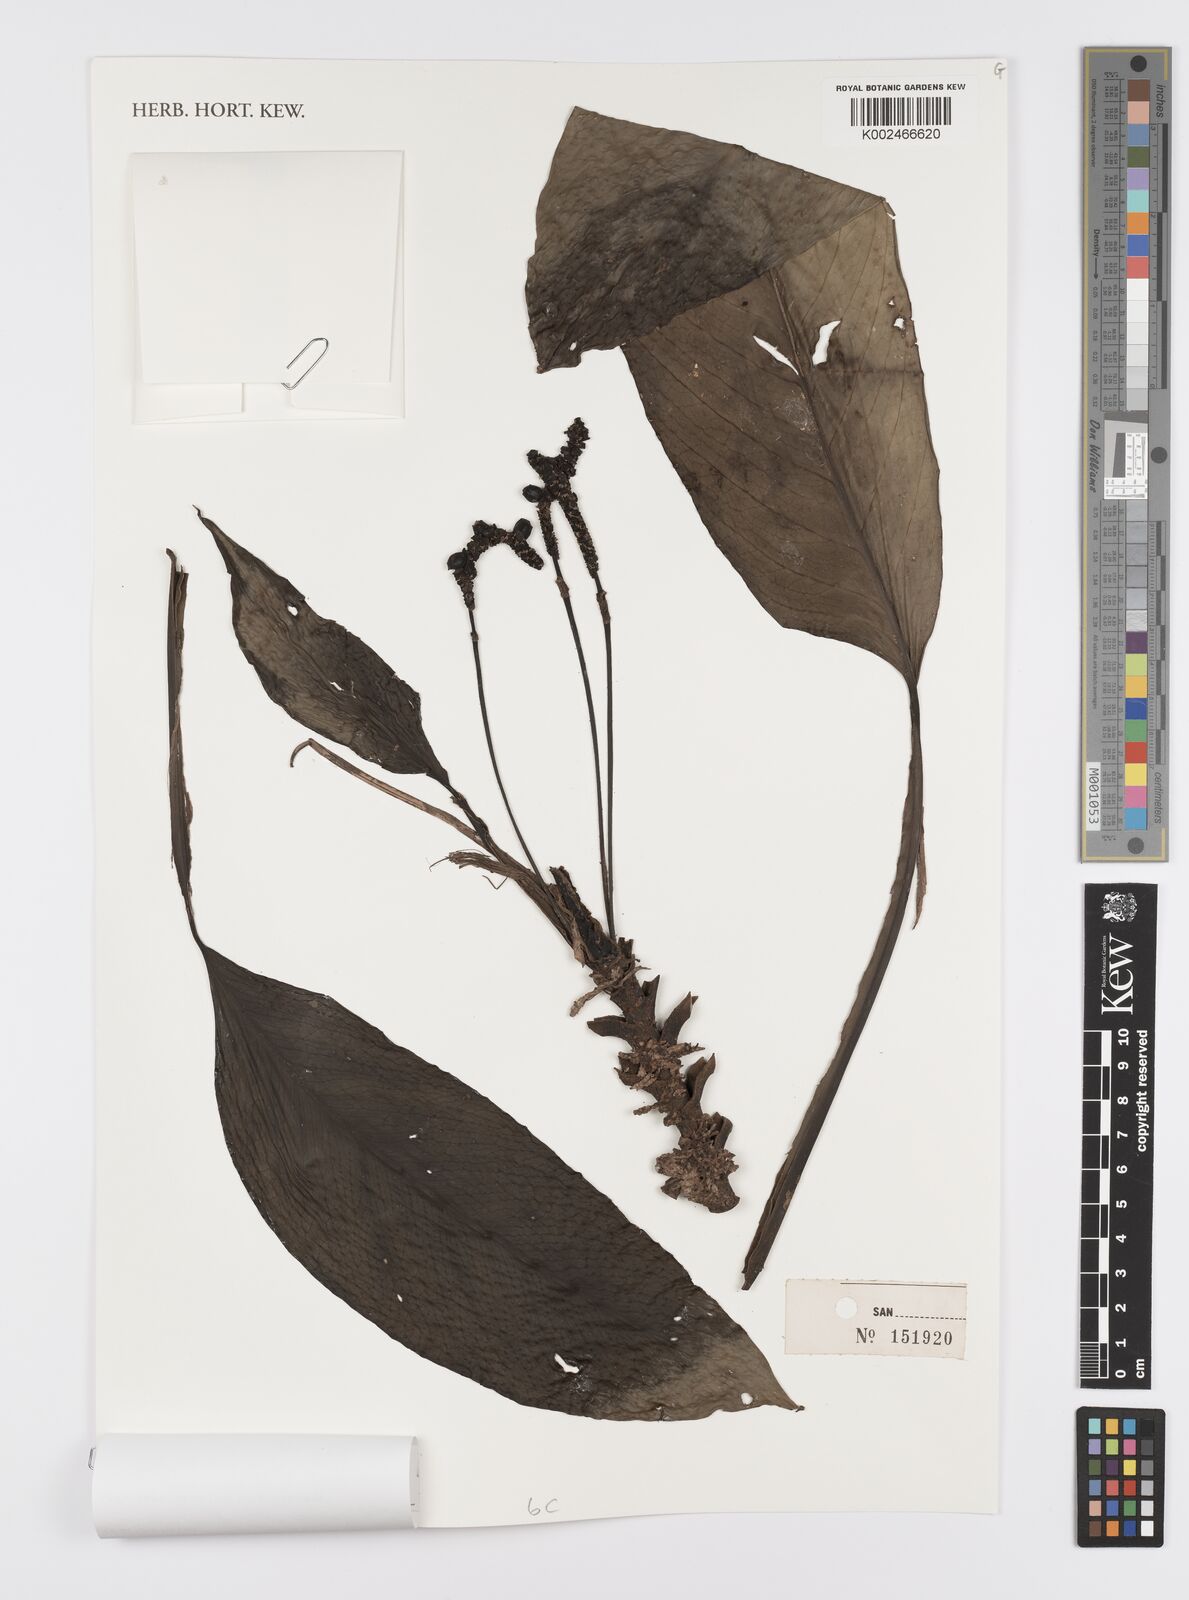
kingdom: Plantae
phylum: Tracheophyta
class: Liliopsida
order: Alismatales
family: Araceae
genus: Scindapsus
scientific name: Scindapsus
